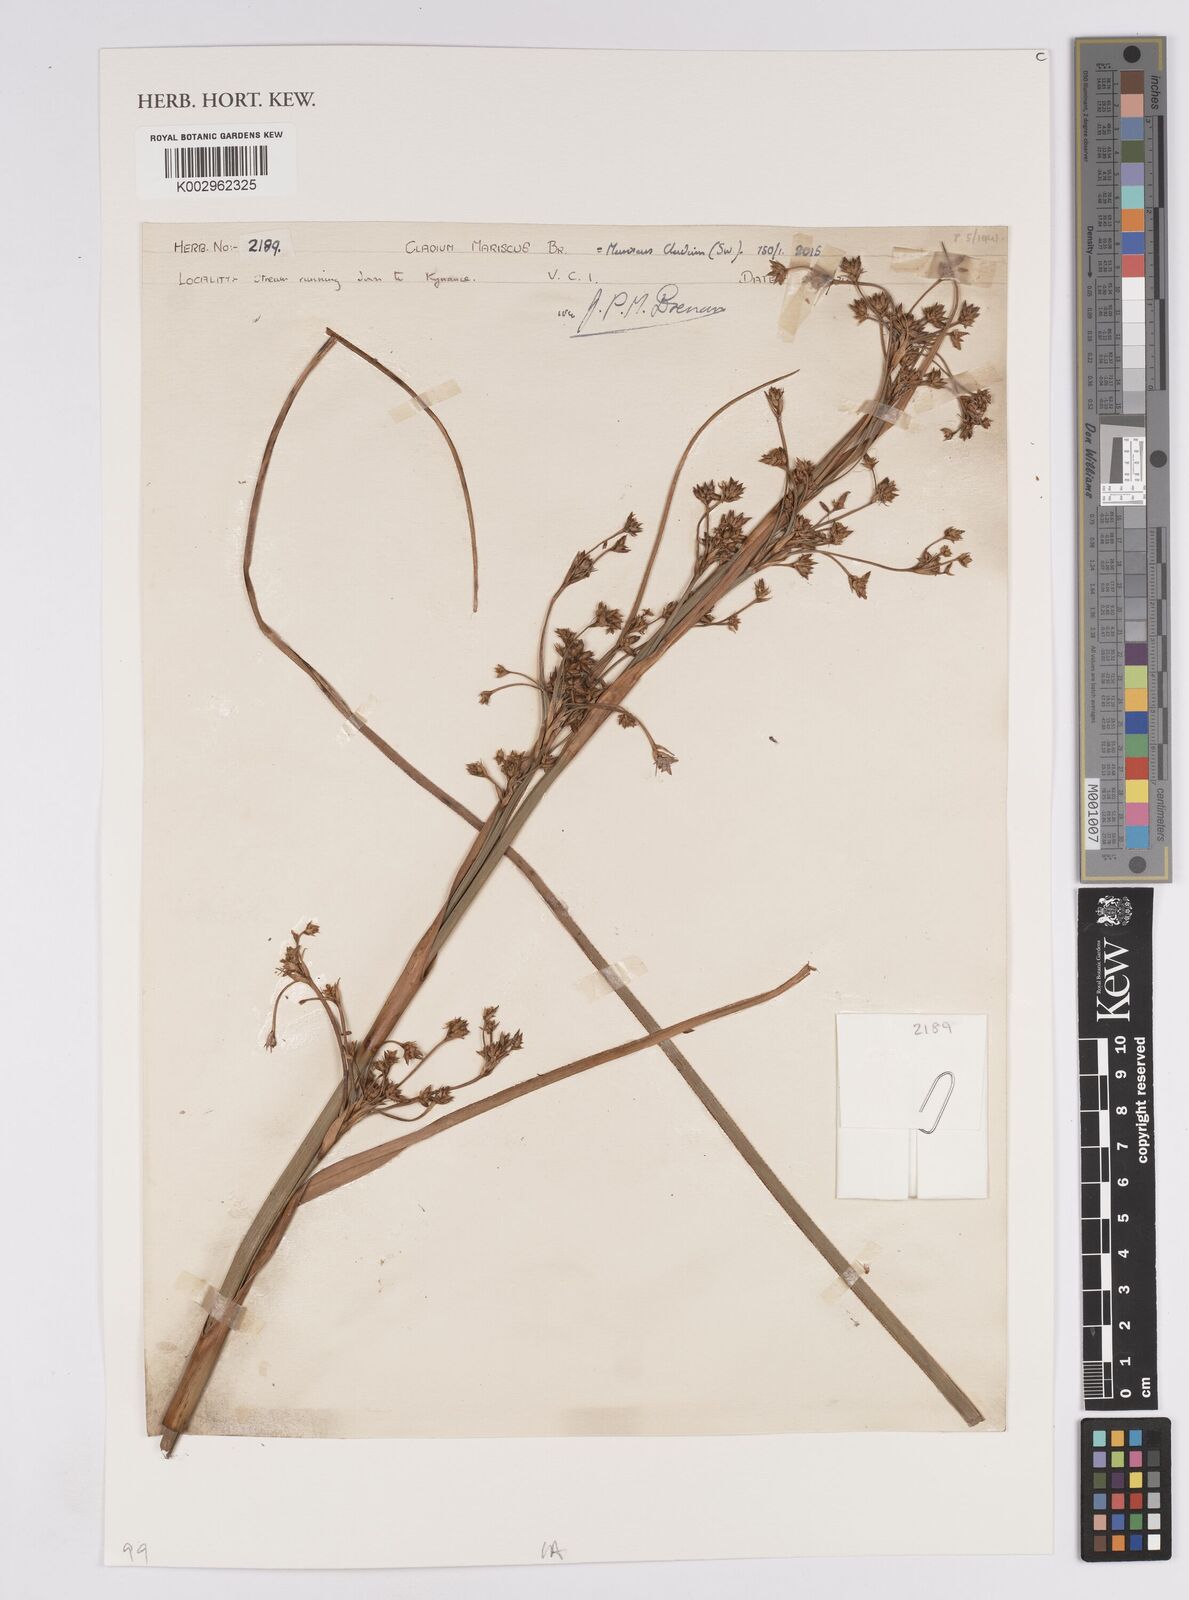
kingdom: Plantae
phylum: Tracheophyta
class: Liliopsida
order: Poales
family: Cyperaceae
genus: Cladium
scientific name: Cladium mariscus
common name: Great fen-sedge
